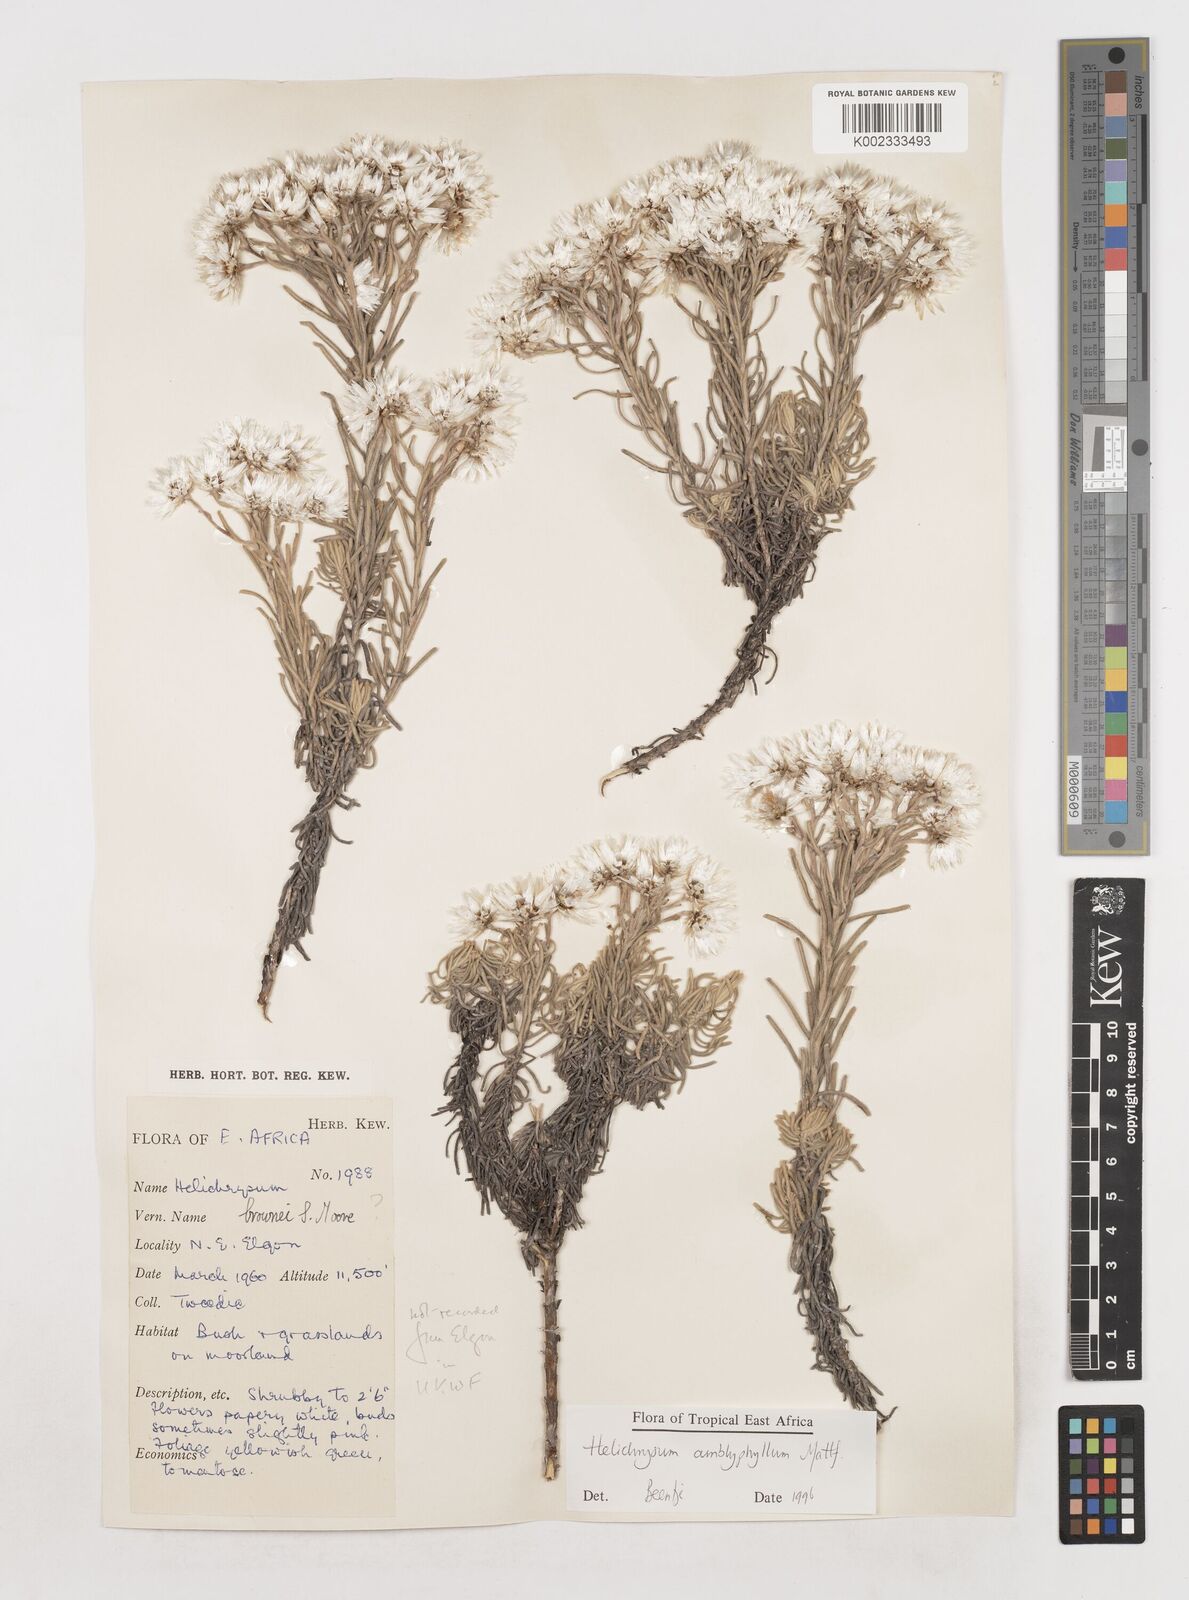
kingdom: Plantae
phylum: Tracheophyta
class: Magnoliopsida
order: Asterales
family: Asteraceae
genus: Helichrysum
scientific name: Helichrysum amblyphyllum
